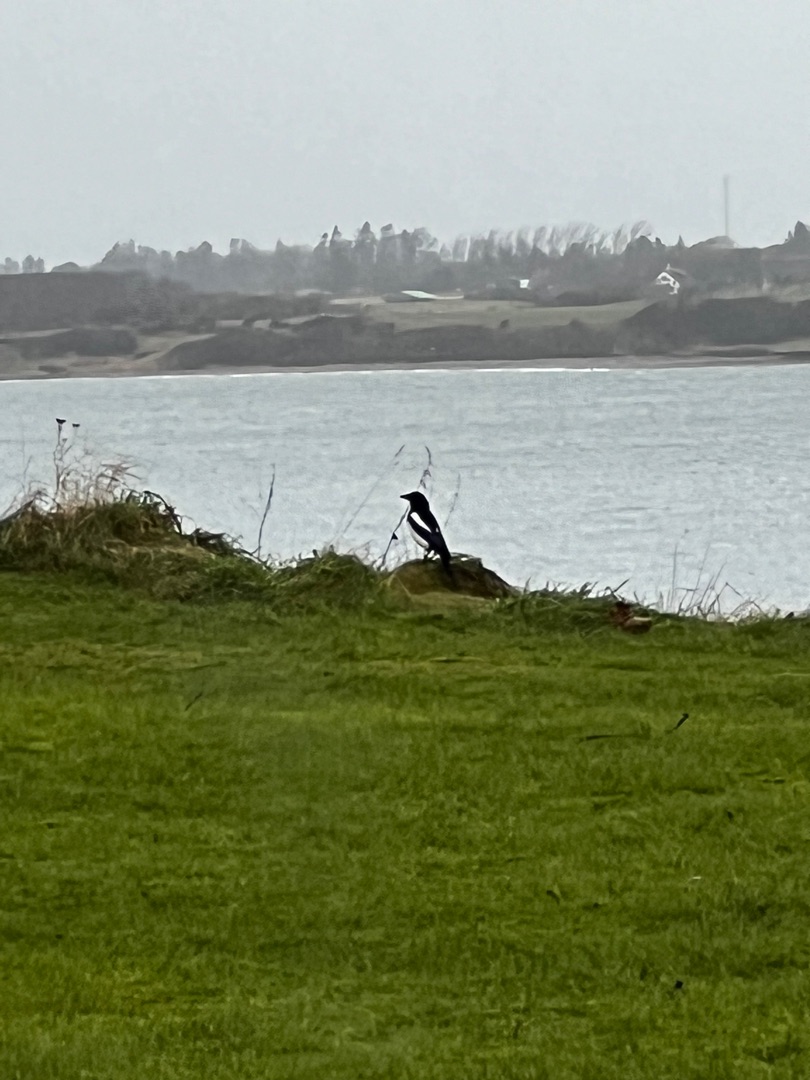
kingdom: Animalia
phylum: Chordata
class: Aves
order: Passeriformes
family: Corvidae
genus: Pica
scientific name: Pica pica
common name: Husskade
